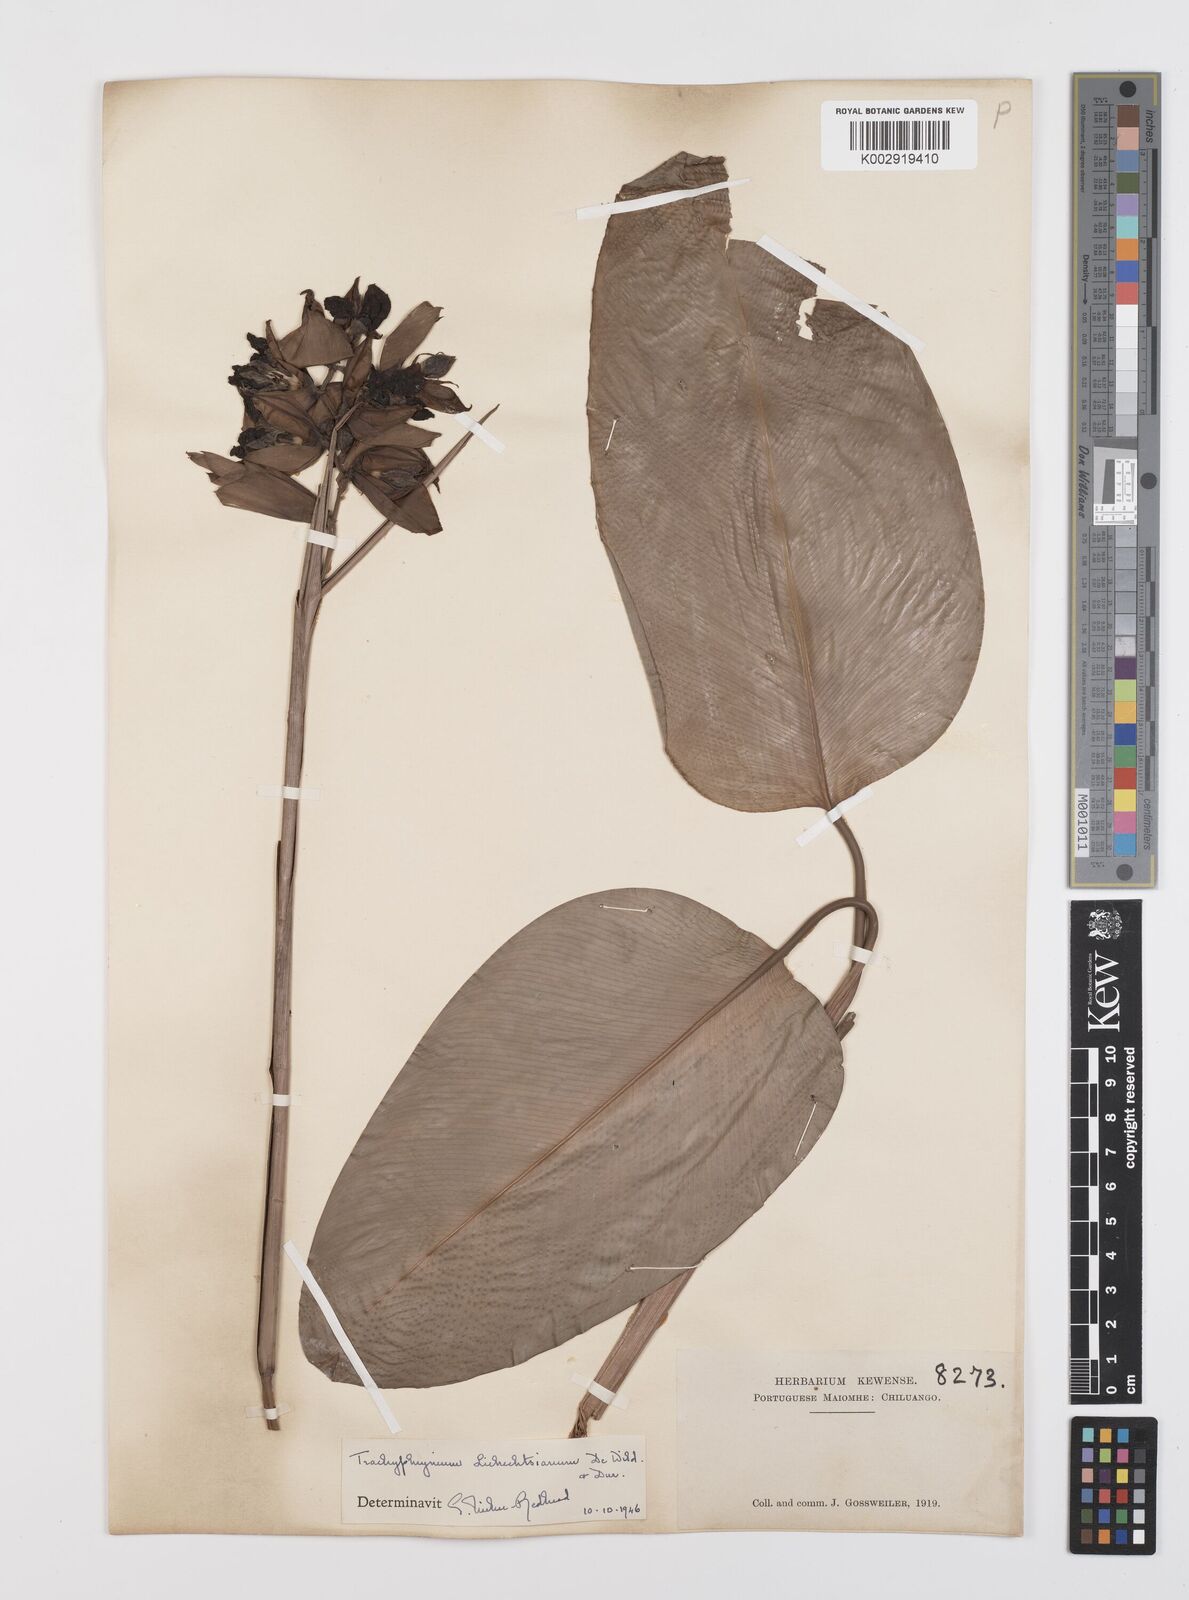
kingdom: Plantae
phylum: Tracheophyta
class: Liliopsida
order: Zingiberales
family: Marantaceae
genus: Haumania
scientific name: Haumania liebrechtsiana
